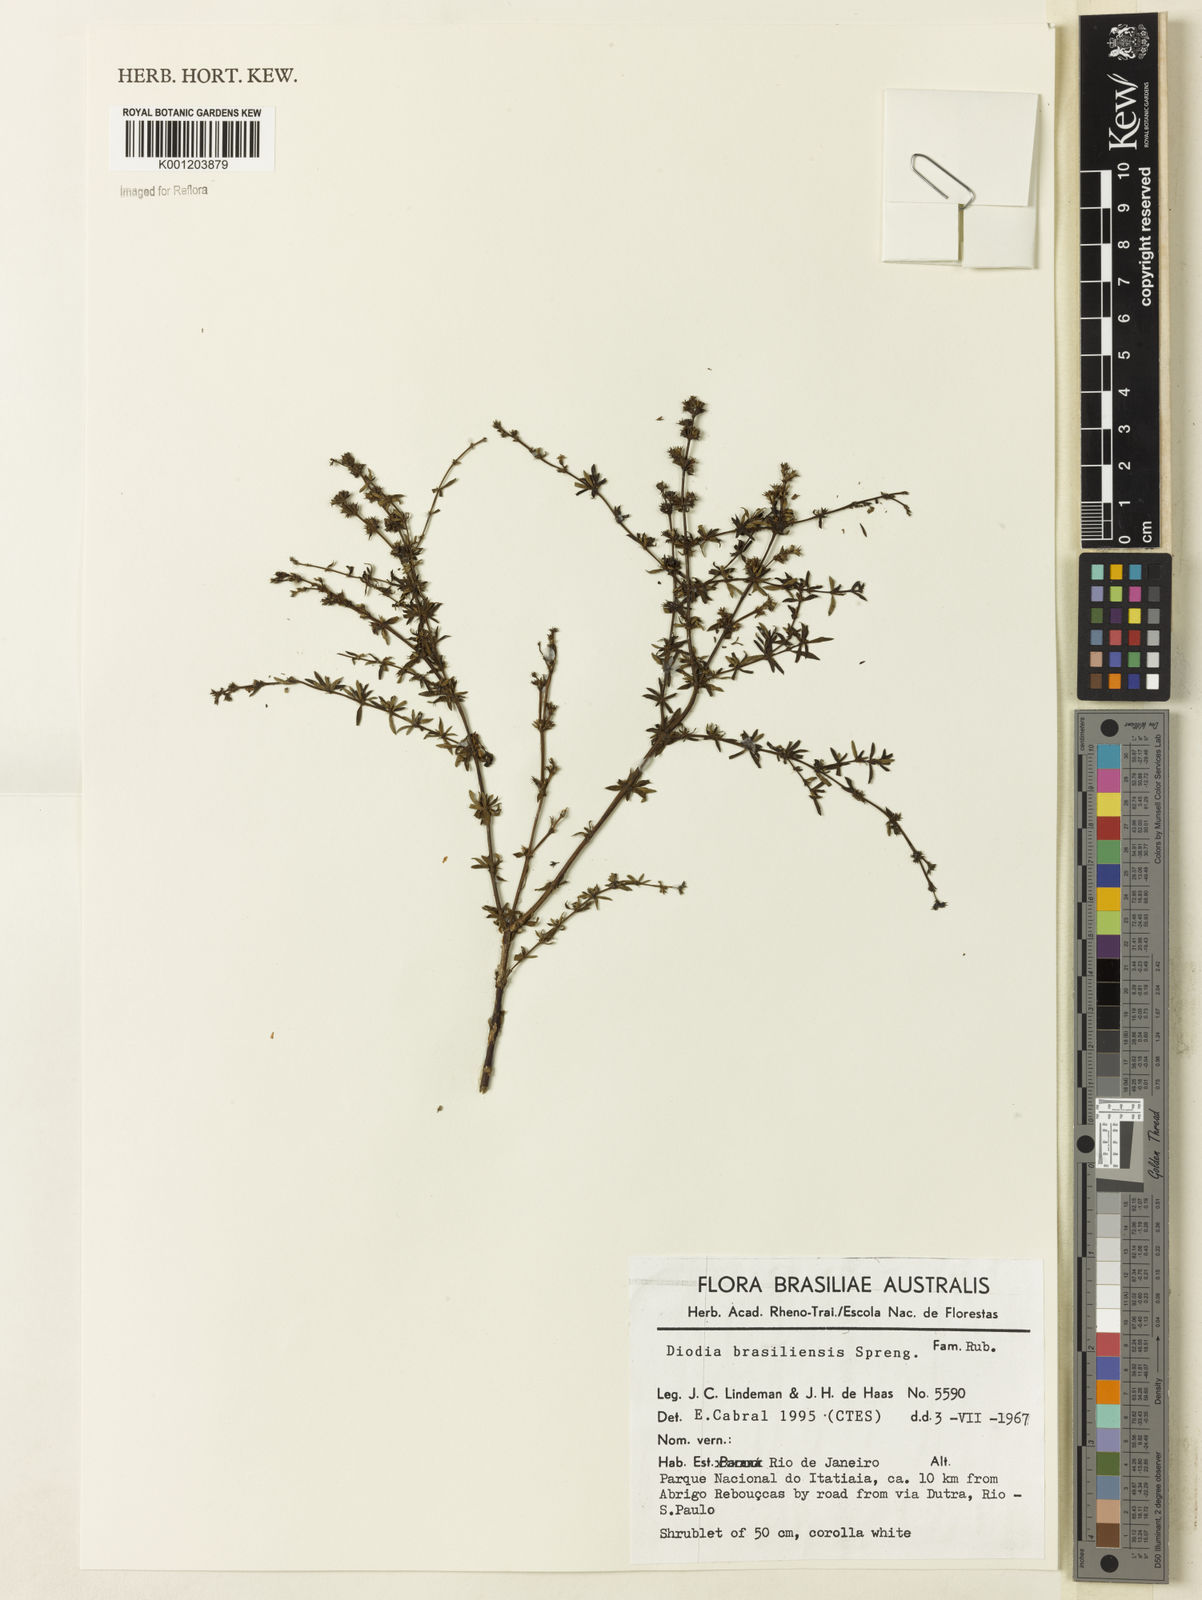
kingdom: Plantae
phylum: Tracheophyta
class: Magnoliopsida
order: Gentianales
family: Rubiaceae
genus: Galianthe
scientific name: Galianthe brasiliensis
